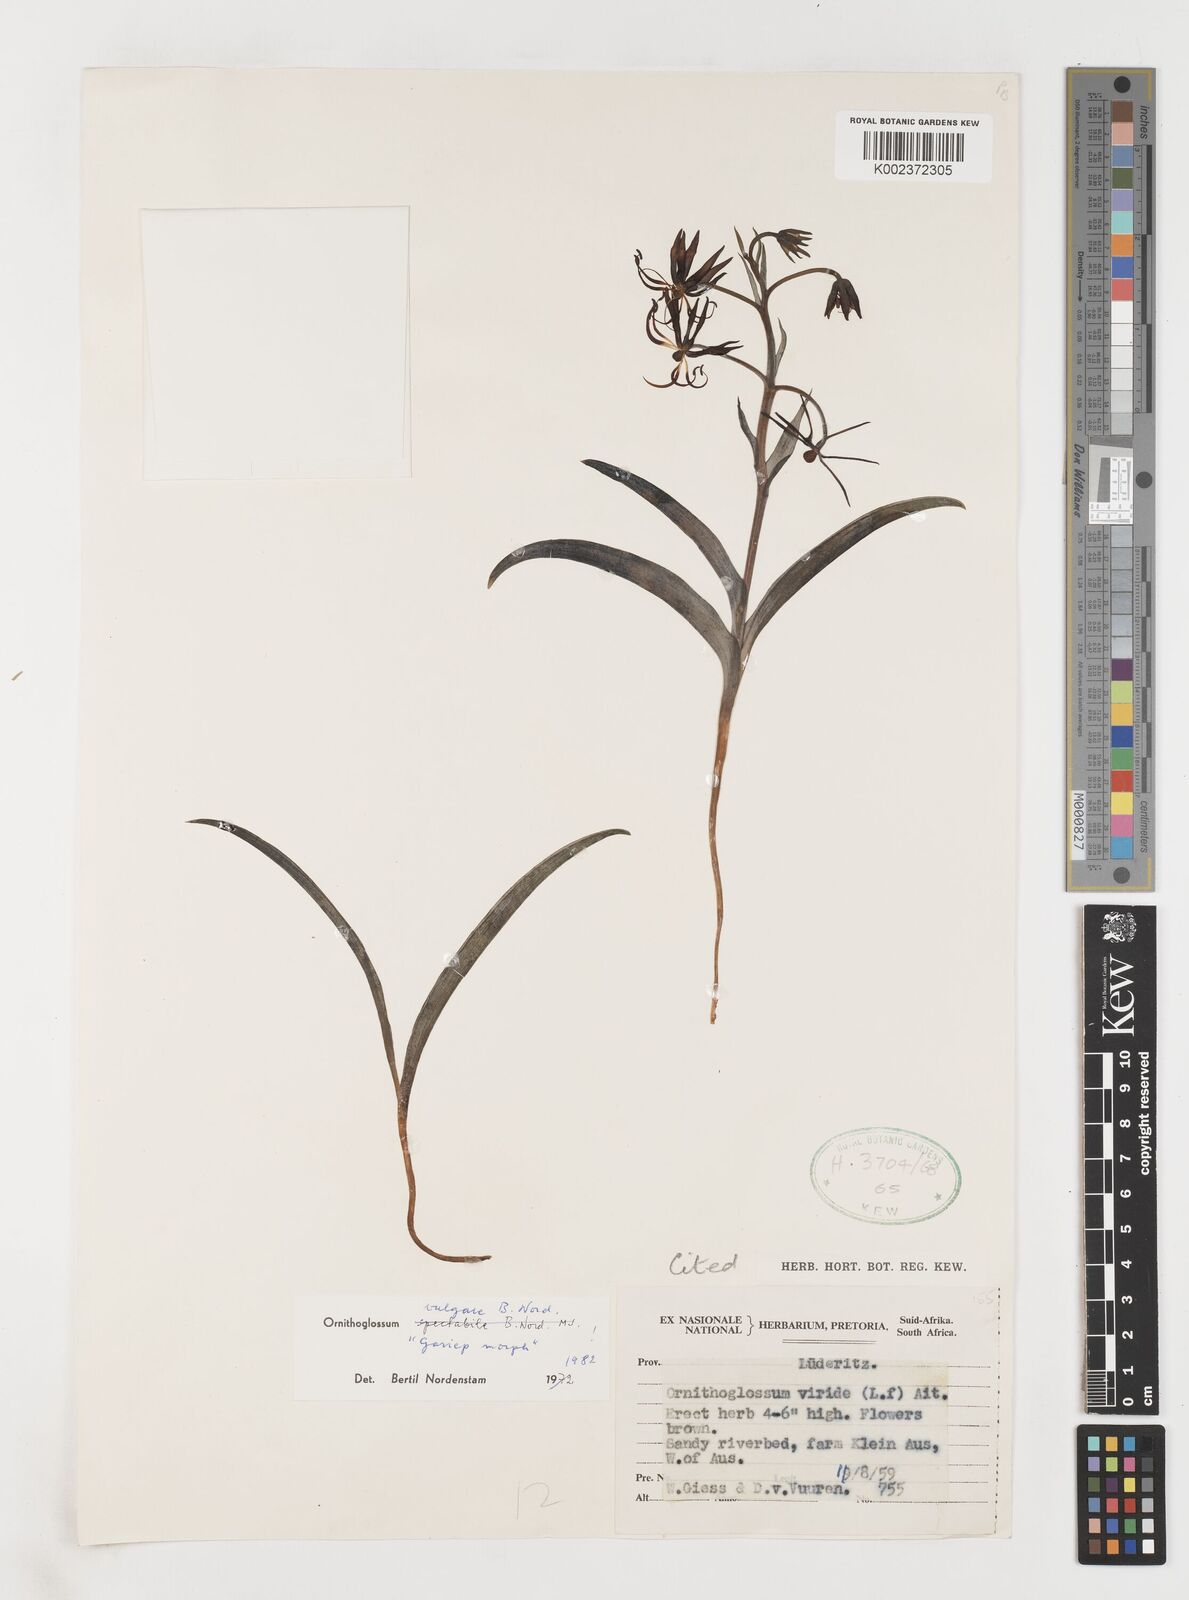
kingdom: Plantae
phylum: Tracheophyta
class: Liliopsida
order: Liliales
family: Colchicaceae
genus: Ornithoglossum
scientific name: Ornithoglossum vulgare
